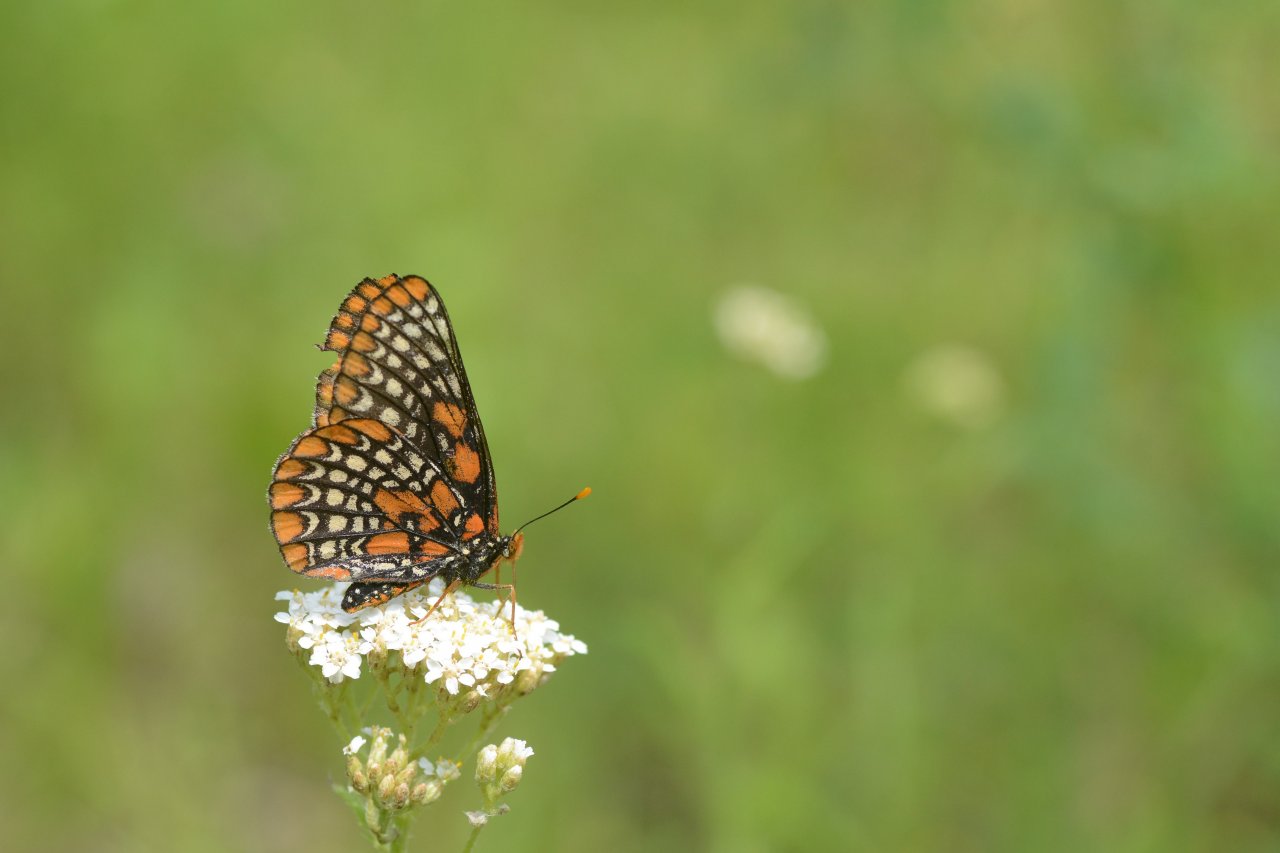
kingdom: Animalia
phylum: Arthropoda
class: Insecta
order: Lepidoptera
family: Nymphalidae
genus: Euphydryas
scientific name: Euphydryas phaeton
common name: Baltimore Checkerspot
